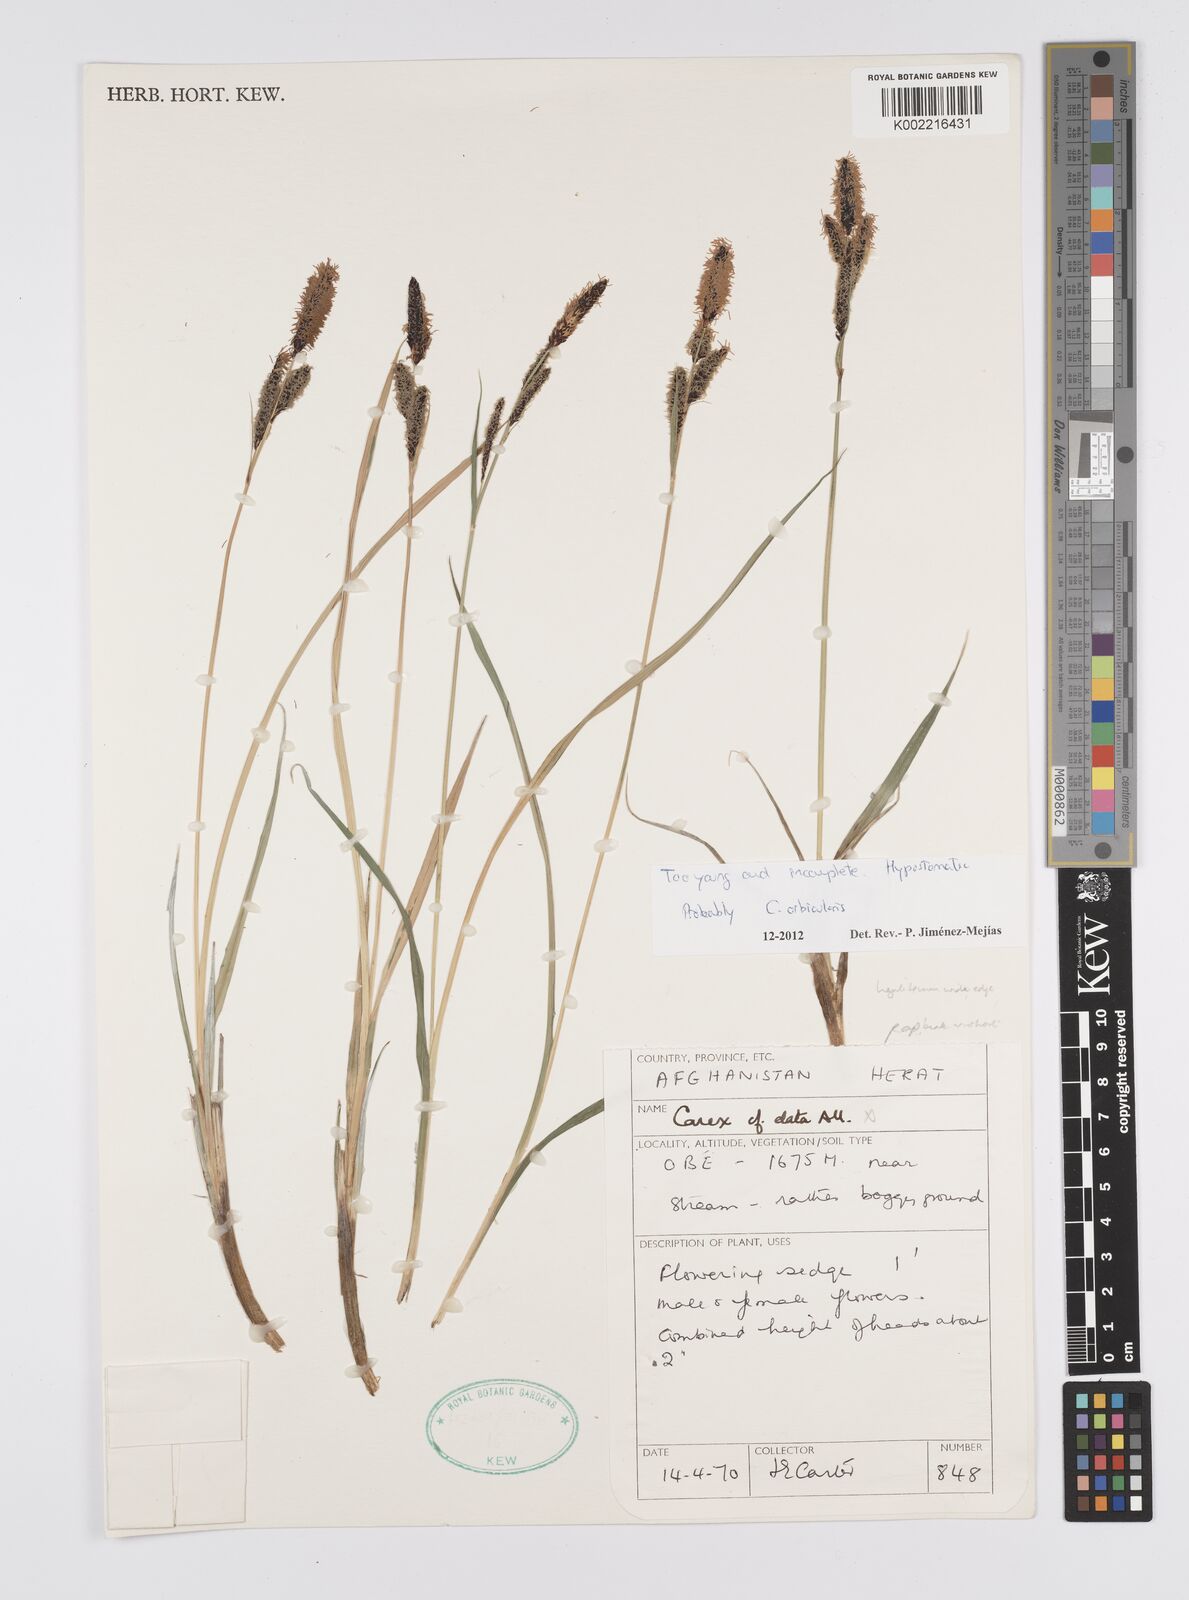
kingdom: Plantae
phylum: Tracheophyta
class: Liliopsida
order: Poales
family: Cyperaceae
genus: Carex
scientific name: Carex orbicularis
